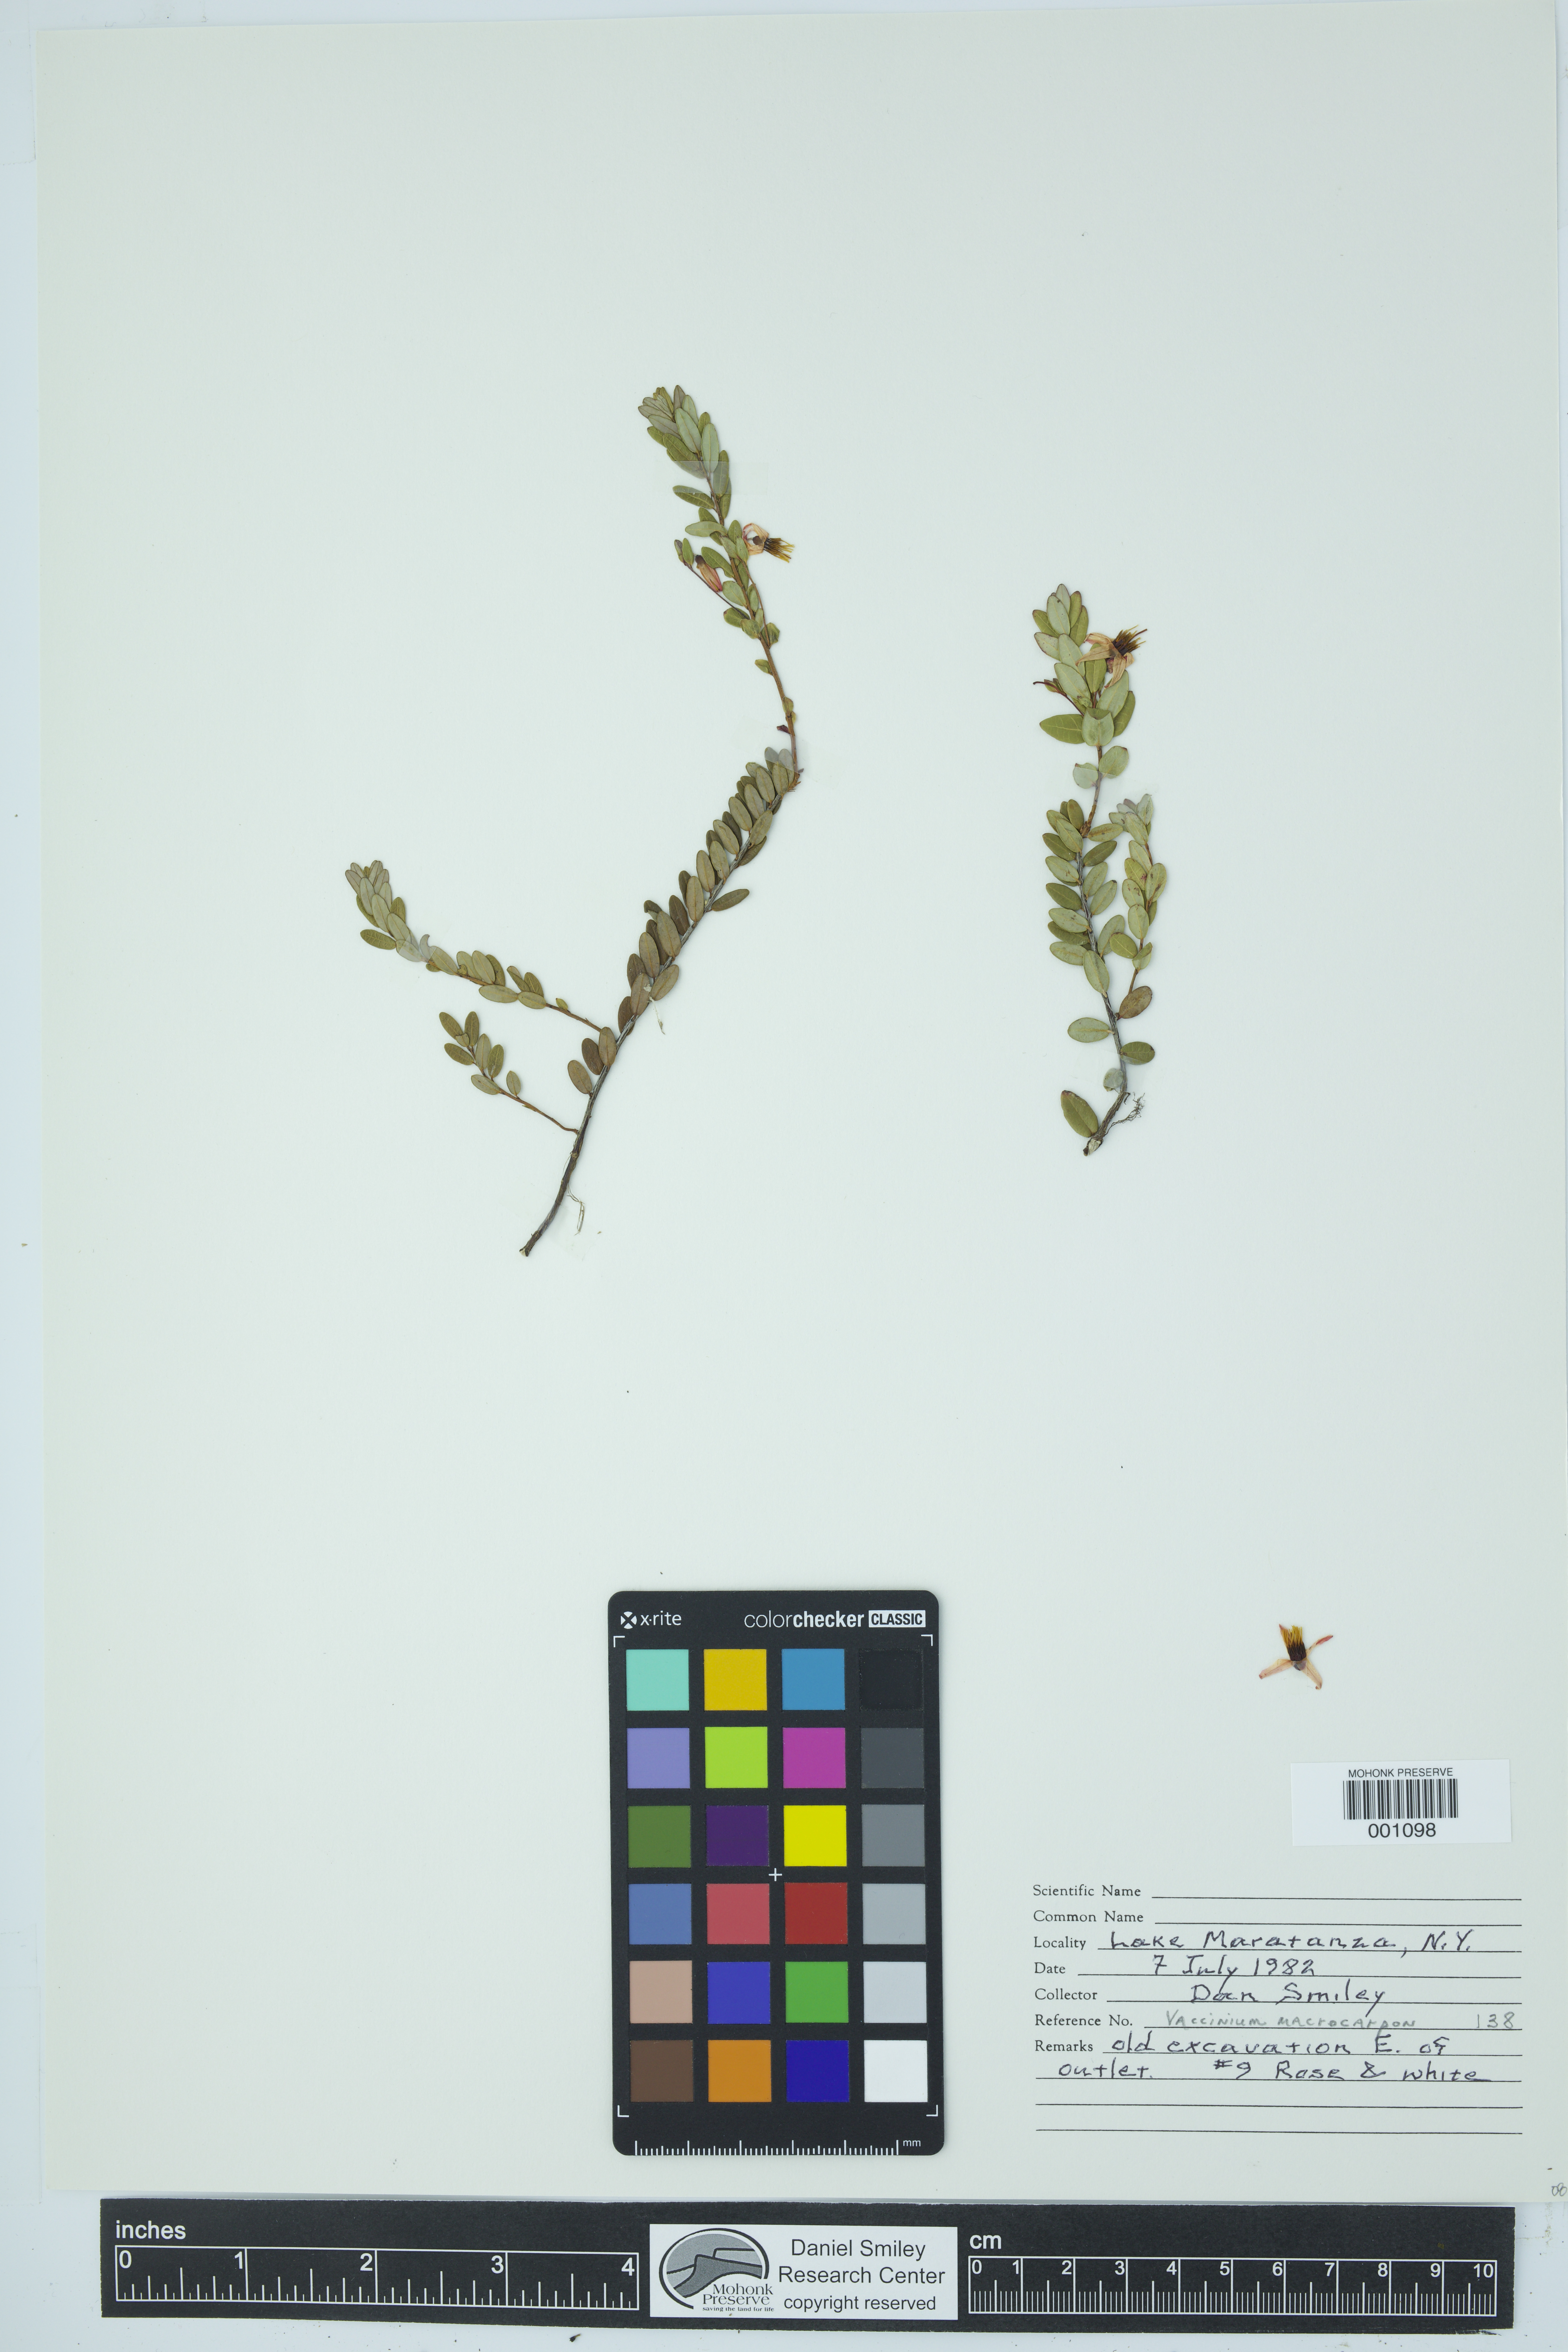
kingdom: Plantae
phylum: Tracheophyta
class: Magnoliopsida
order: Ericales
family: Ericaceae
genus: Vaccinium
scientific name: Vaccinium macrocarpon
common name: American cranberry
